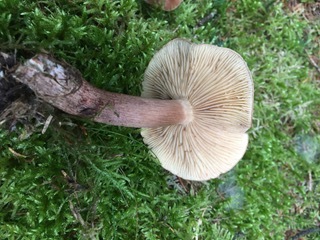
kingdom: Fungi
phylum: Basidiomycota
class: Agaricomycetes
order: Agaricales
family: Tricholomataceae
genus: Tricholoma
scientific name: Tricholoma fulvum
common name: birke-ridderhat
